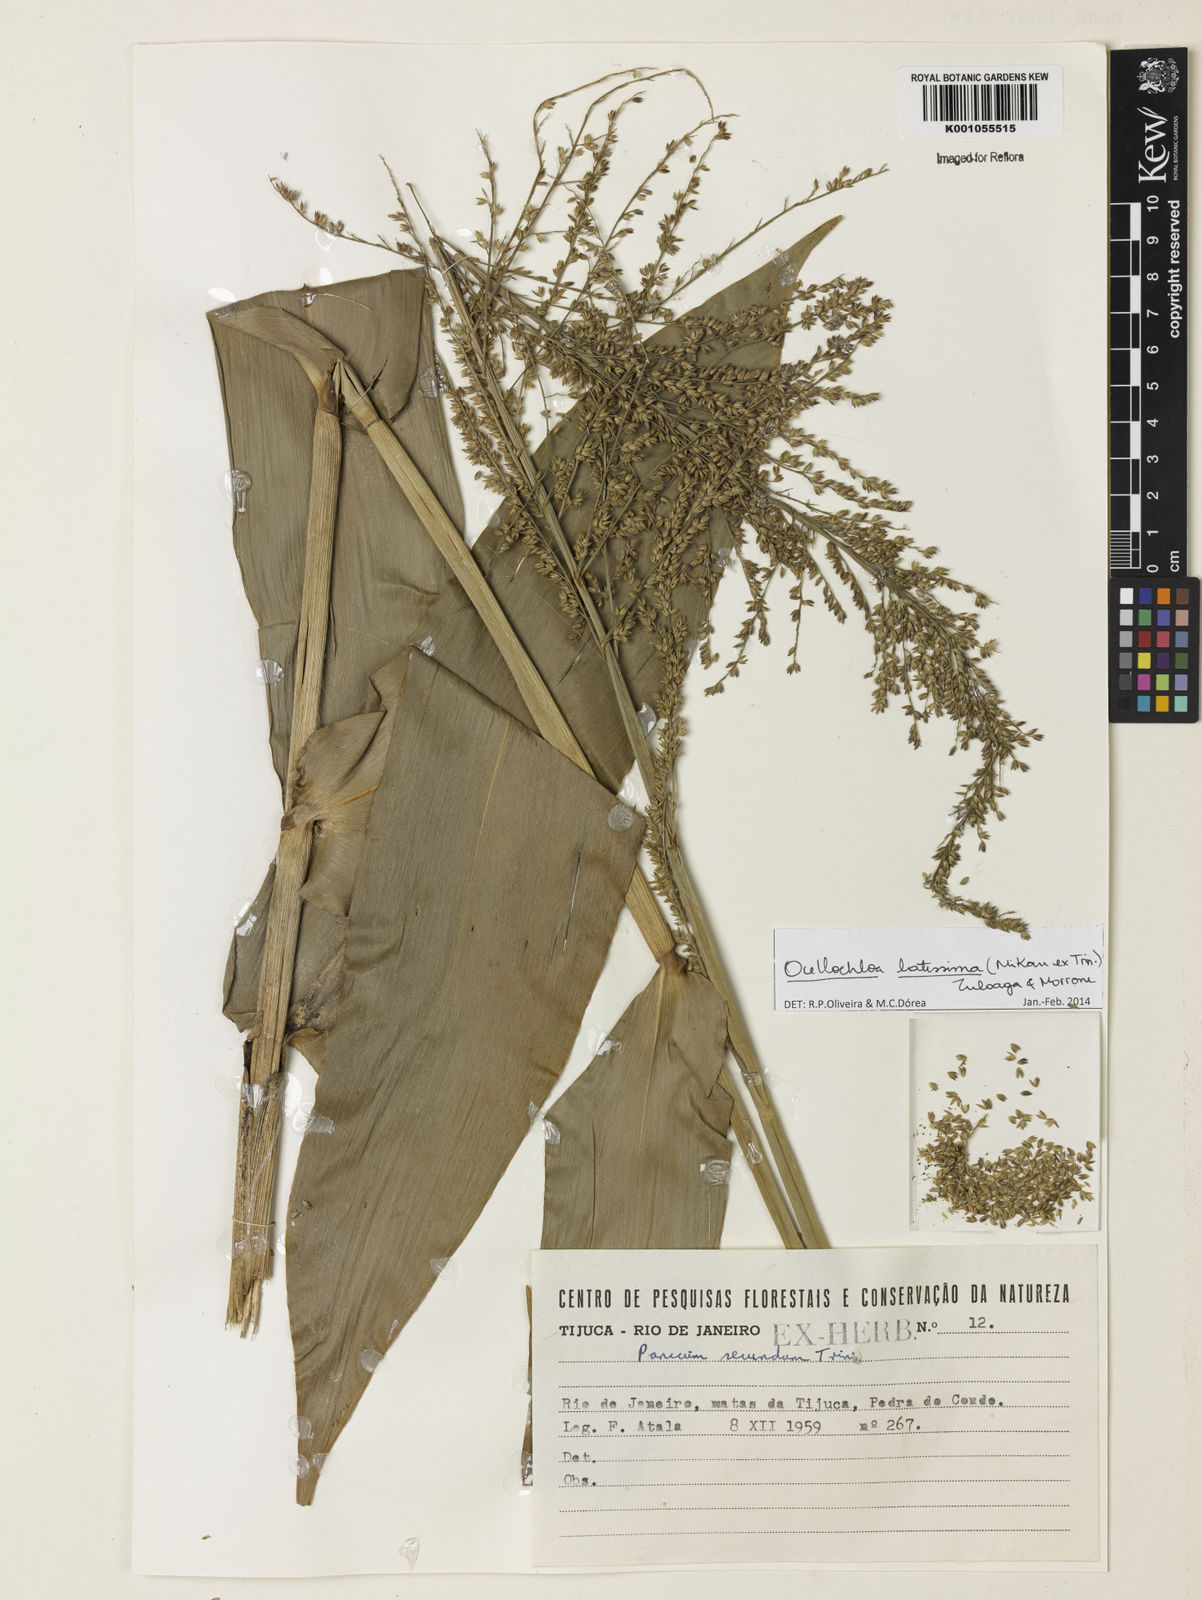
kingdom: Plantae
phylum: Tracheophyta
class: Liliopsida
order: Poales
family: Poaceae
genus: Ocellochloa
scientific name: Ocellochloa latissima
